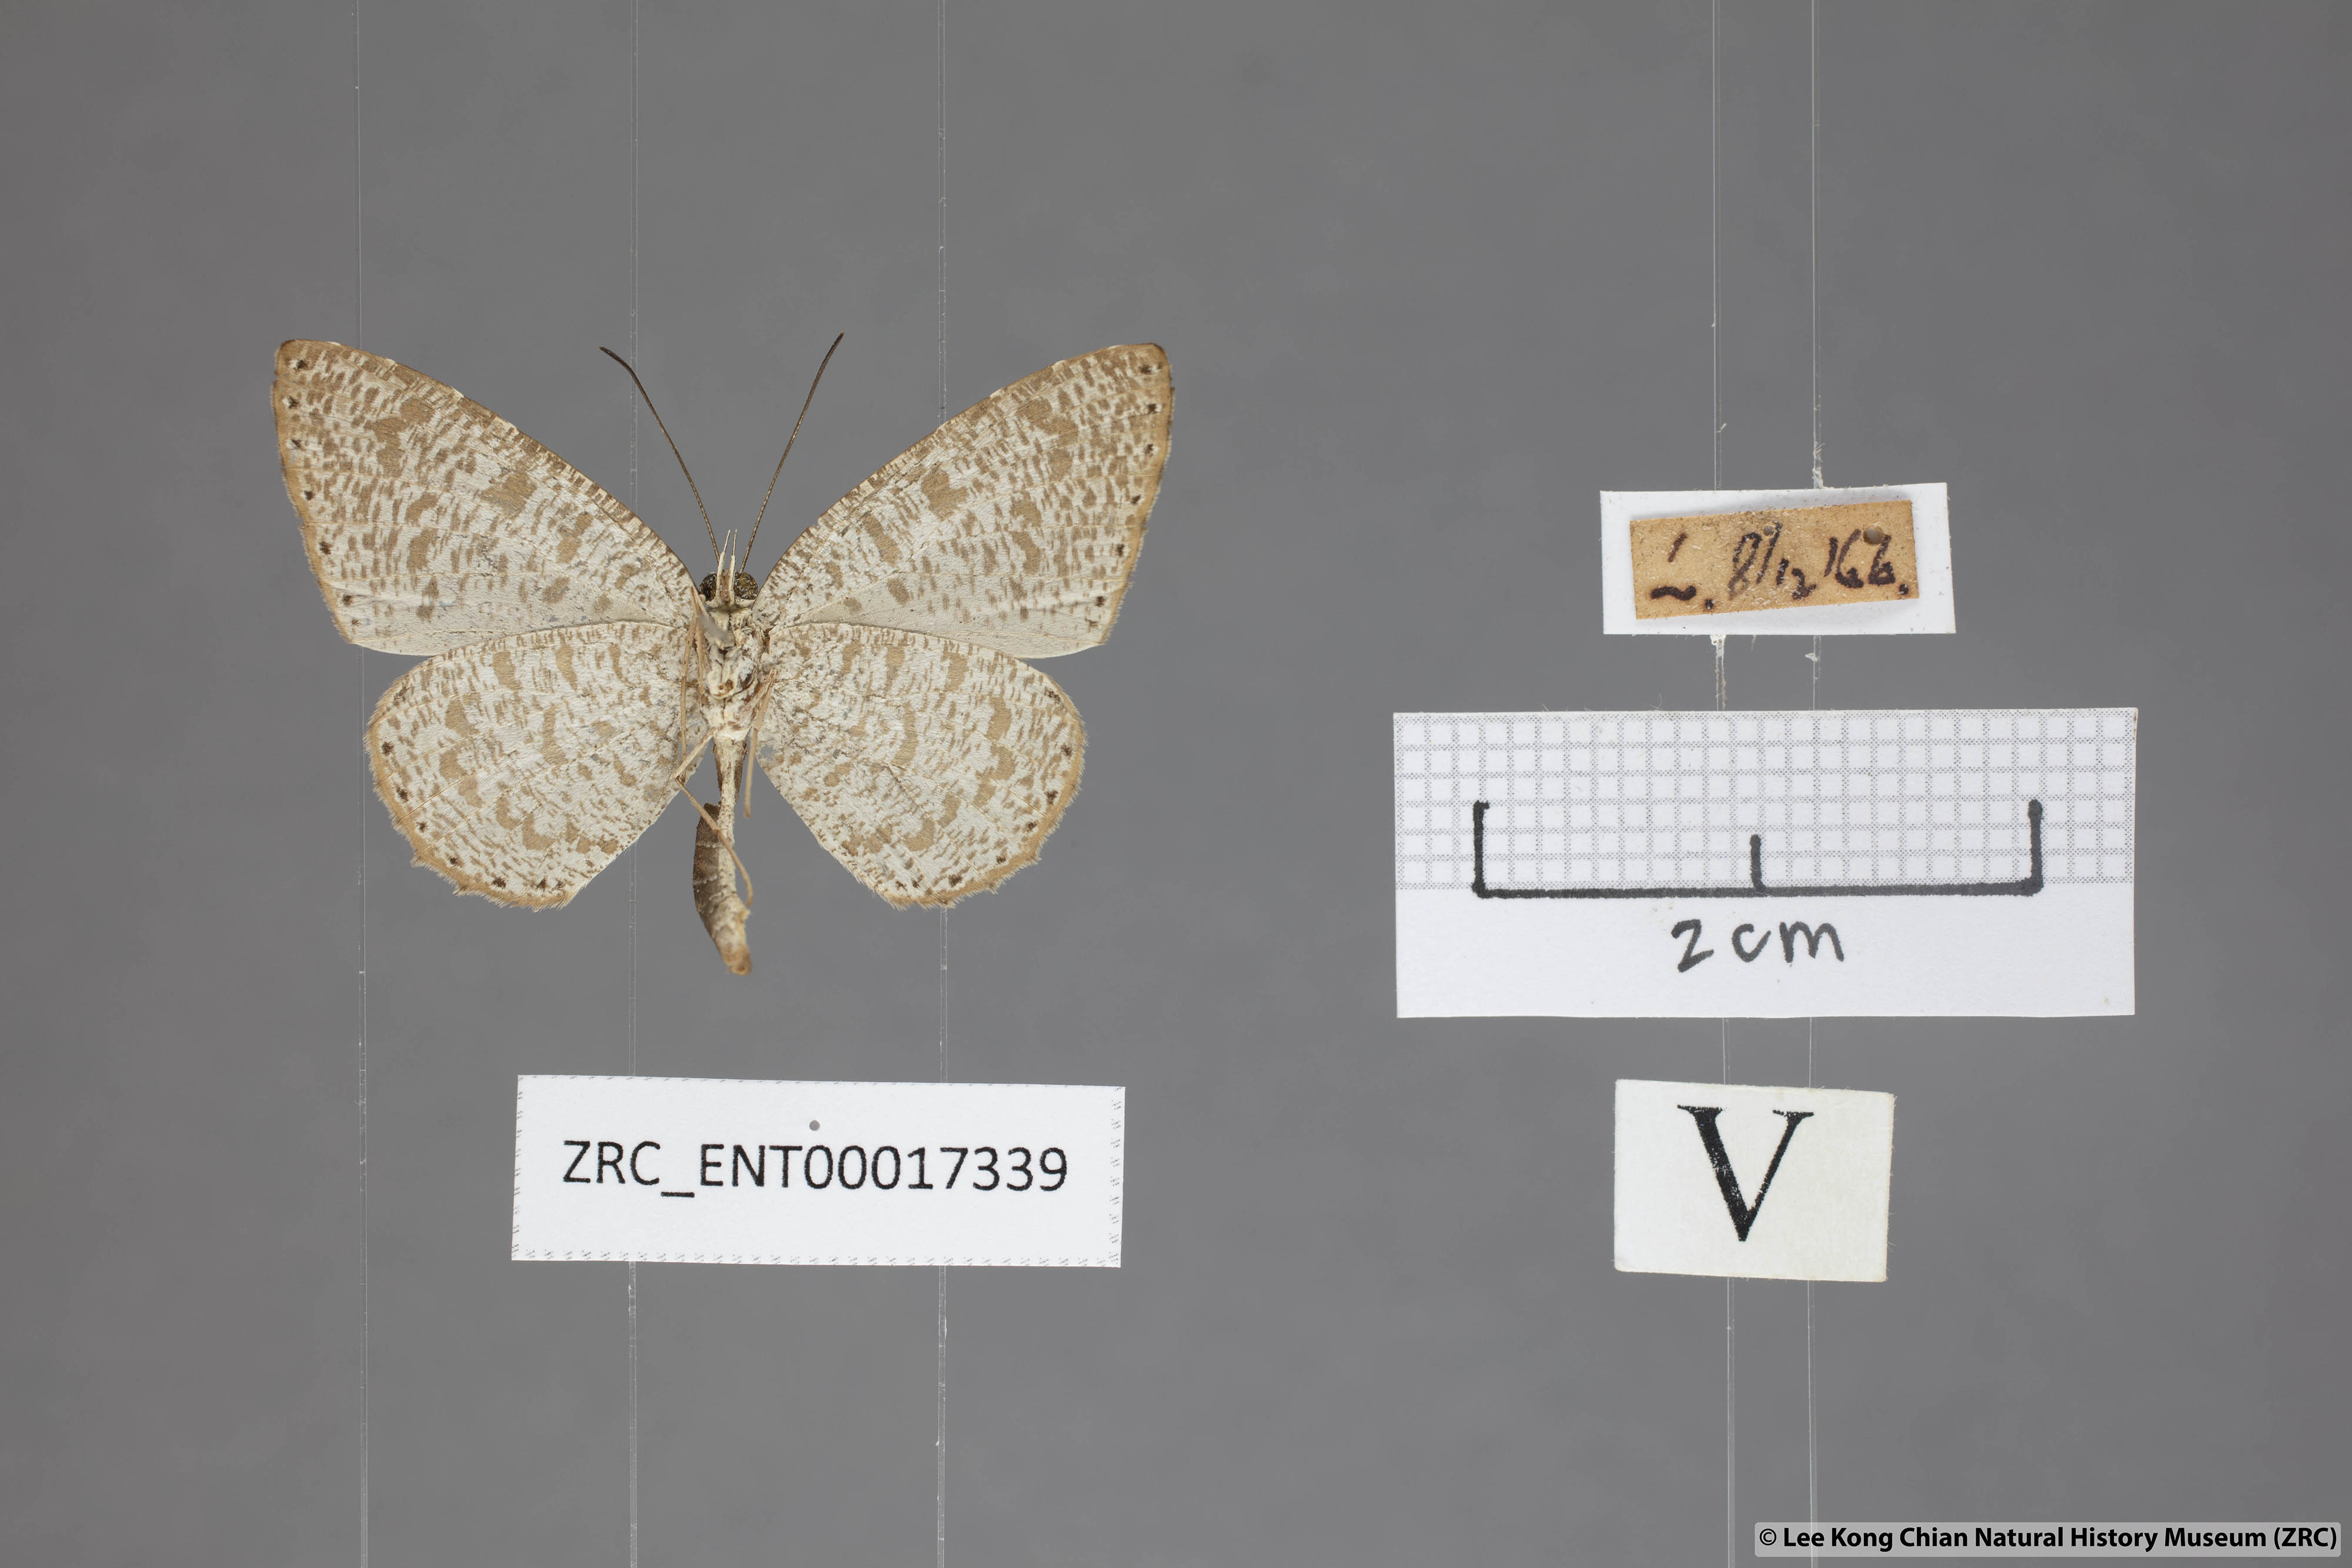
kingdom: Animalia
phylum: Arthropoda
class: Insecta
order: Lepidoptera
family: Lycaenidae
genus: Allotinus
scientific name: Allotinus sarastes
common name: Peninsular darkie
